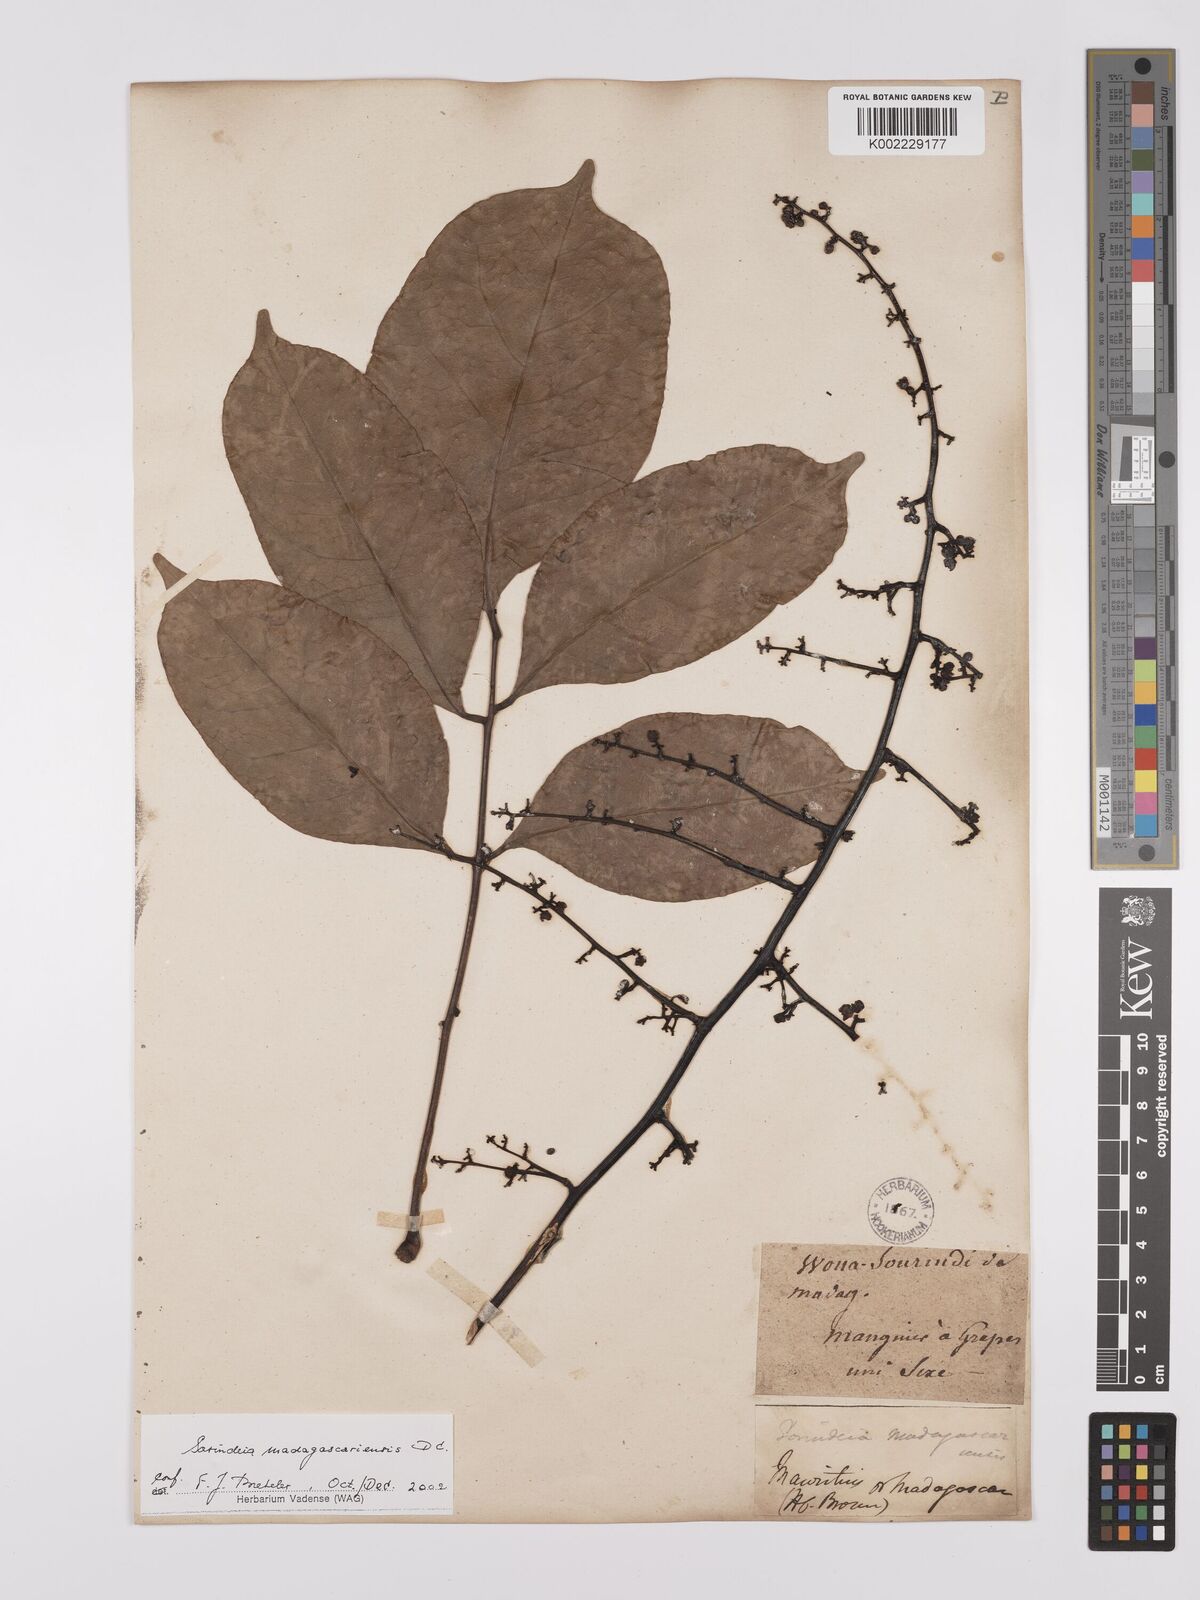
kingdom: Plantae
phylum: Tracheophyta
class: Magnoliopsida
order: Sapindales
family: Anacardiaceae
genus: Sorindeia
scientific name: Sorindeia madagascariensis
